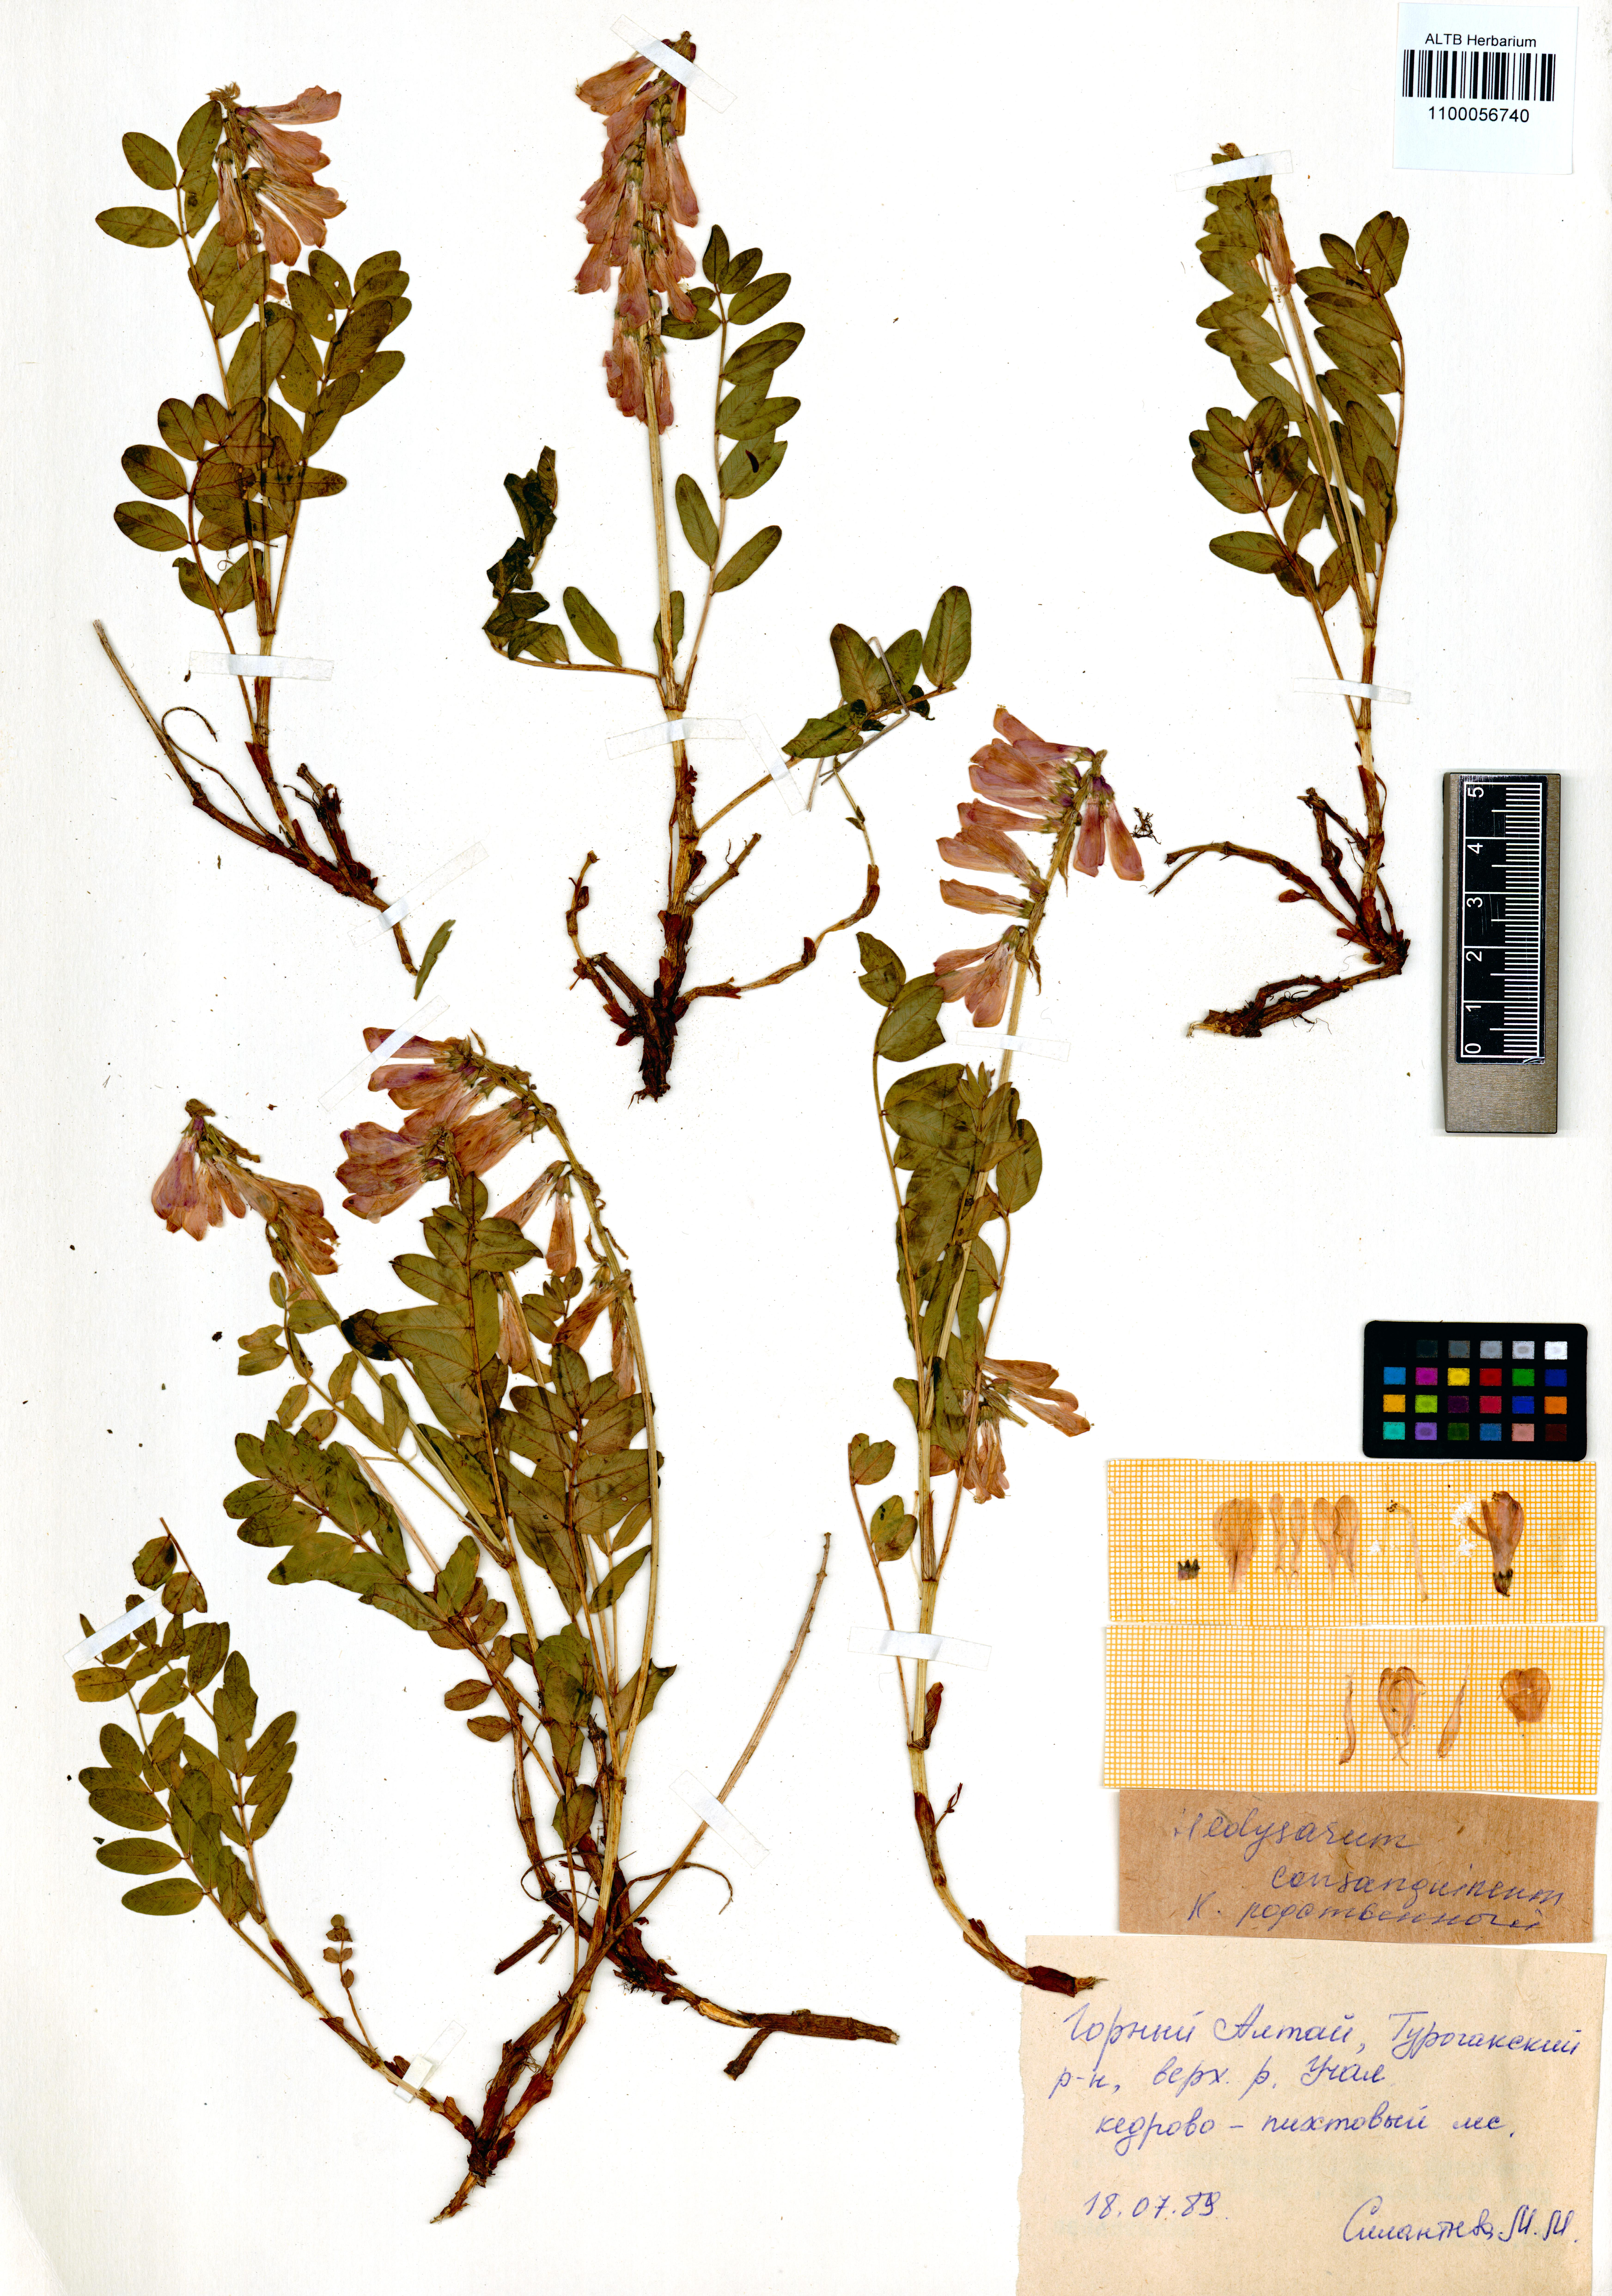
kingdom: Plantae
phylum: Tracheophyta
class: Magnoliopsida
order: Fabales
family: Fabaceae
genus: Hedysarum
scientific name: Hedysarum consanguineum
